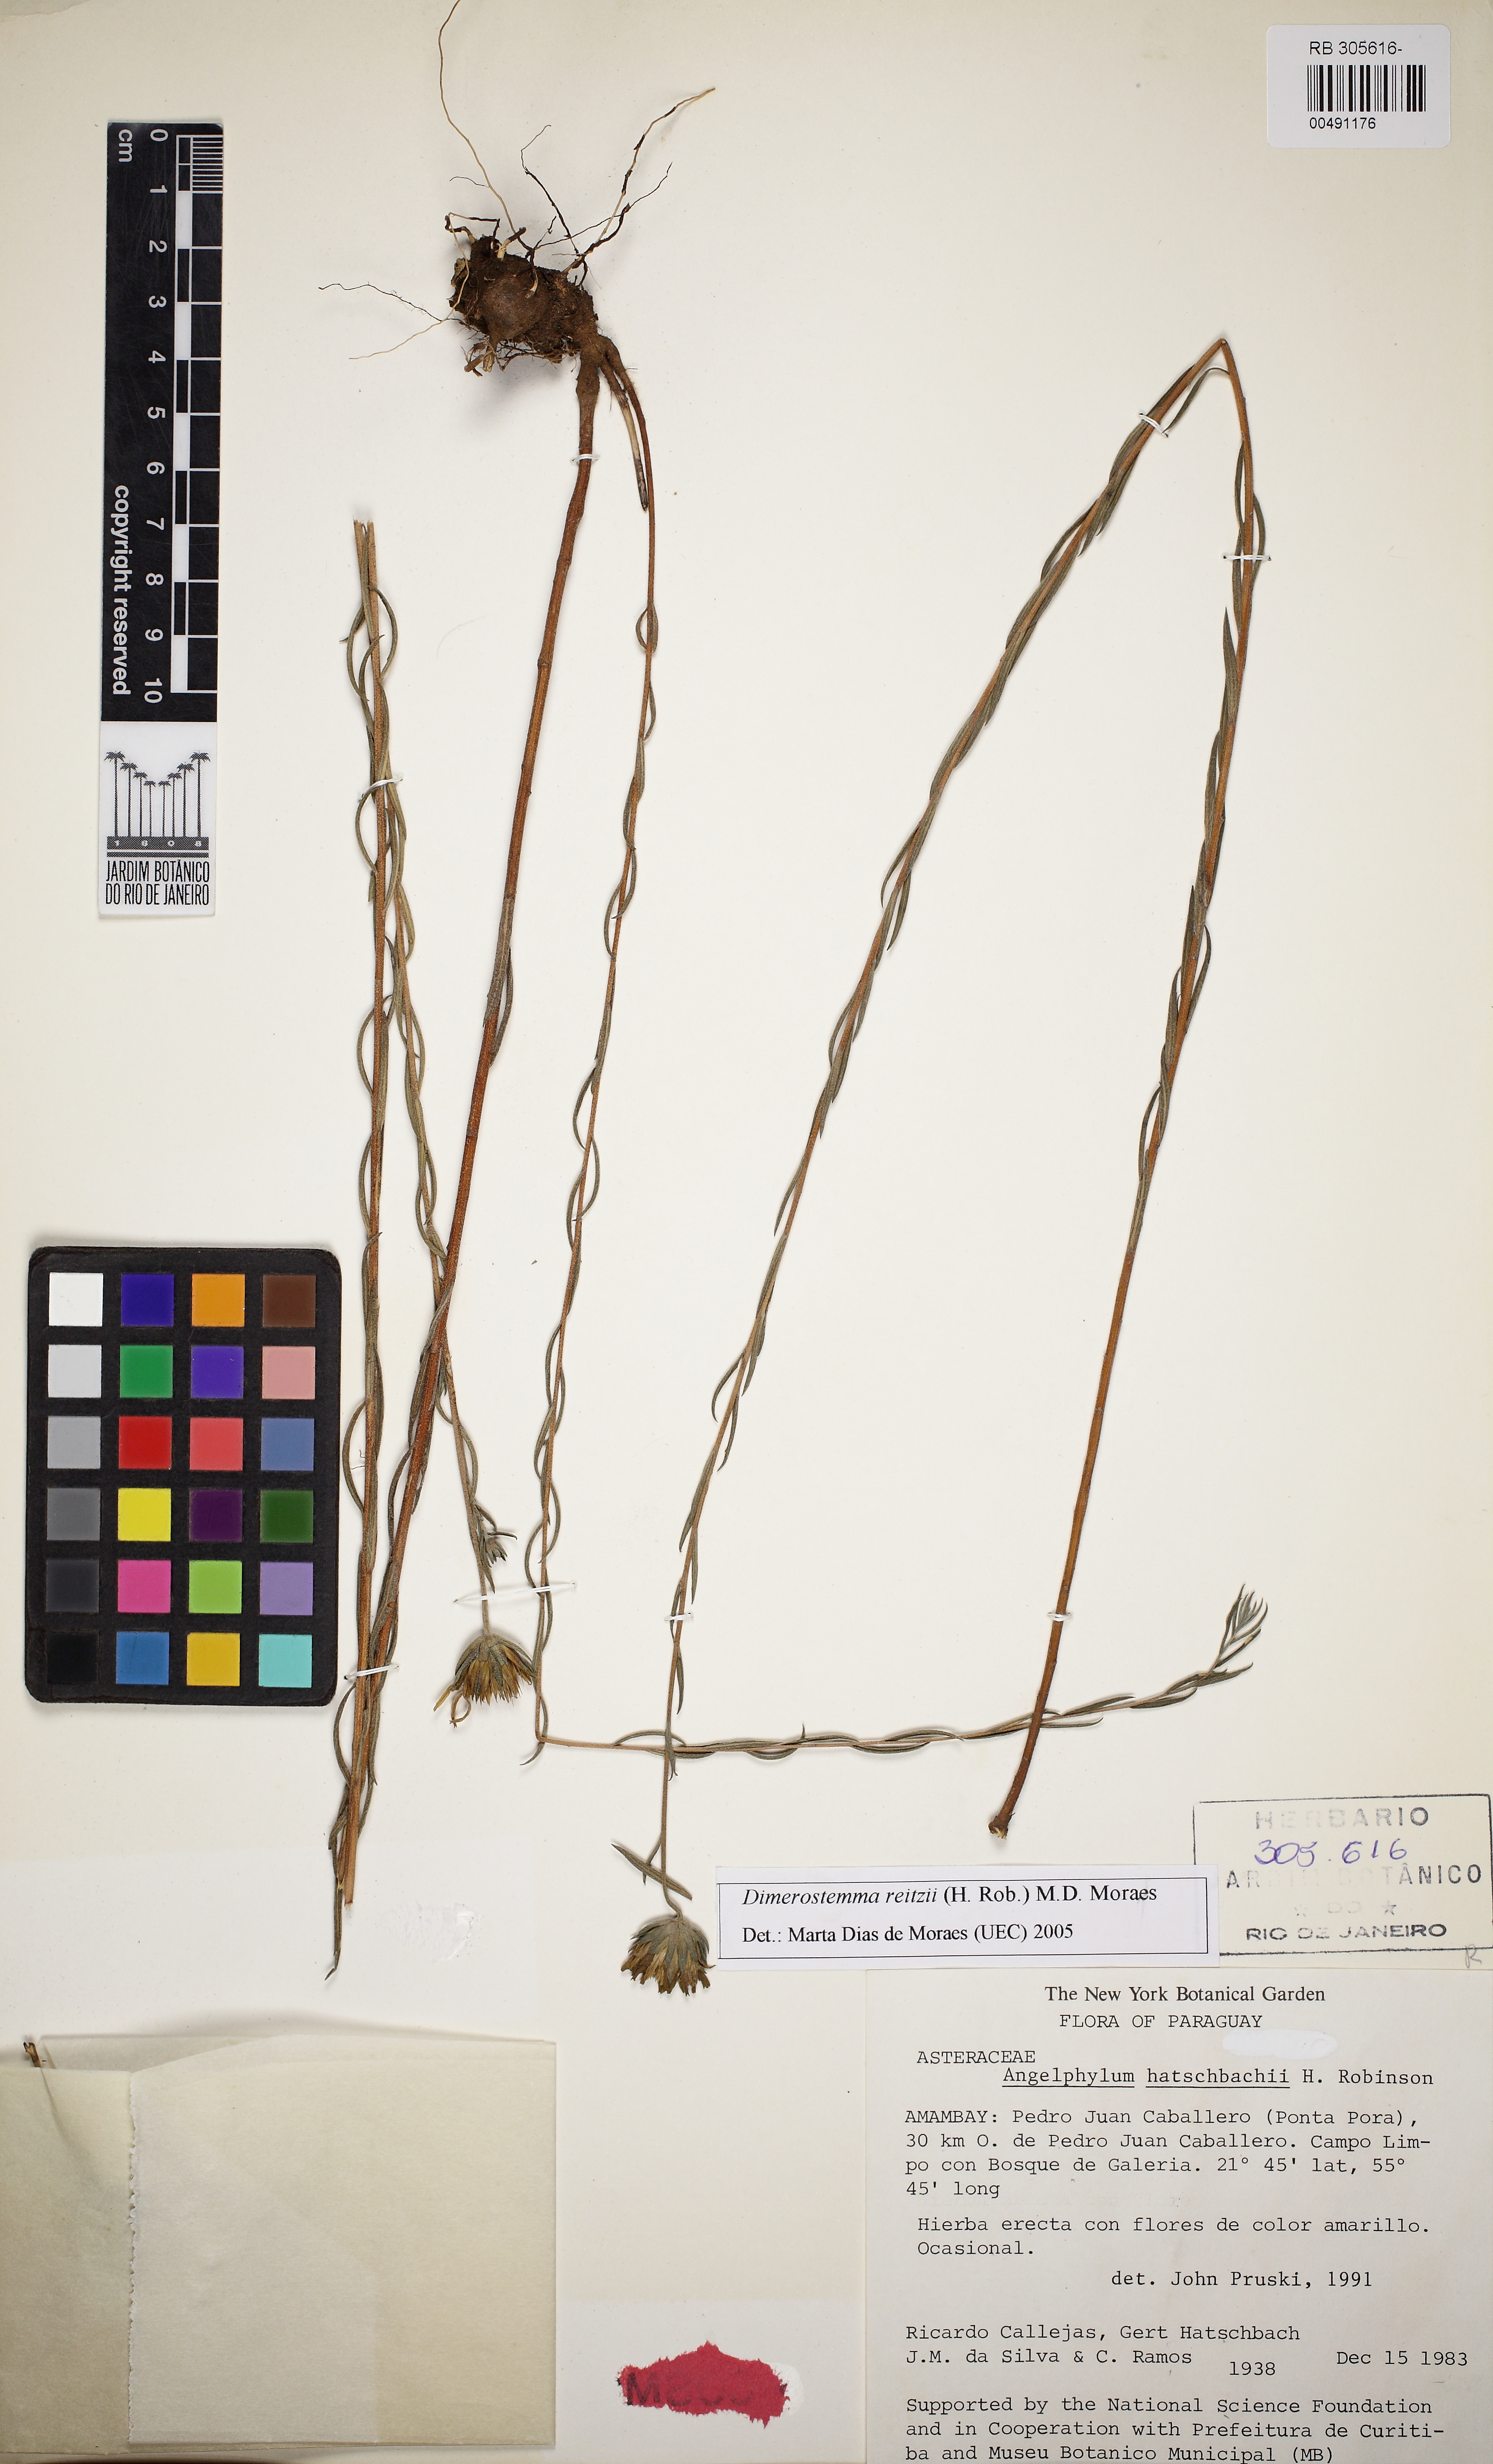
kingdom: Plantae
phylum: Tracheophyta
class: Magnoliopsida
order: Asterales
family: Asteraceae
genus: Dimerostemma
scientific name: Dimerostemma reitzii
